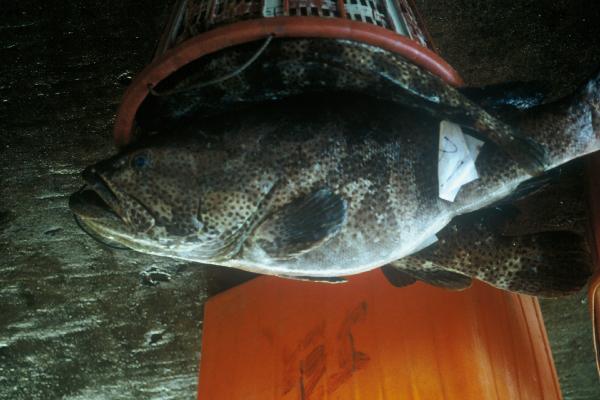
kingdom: Animalia
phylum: Chordata
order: Perciformes
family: Serranidae
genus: Epinephelus
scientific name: Epinephelus coioides
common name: Orange-spotted grouper
